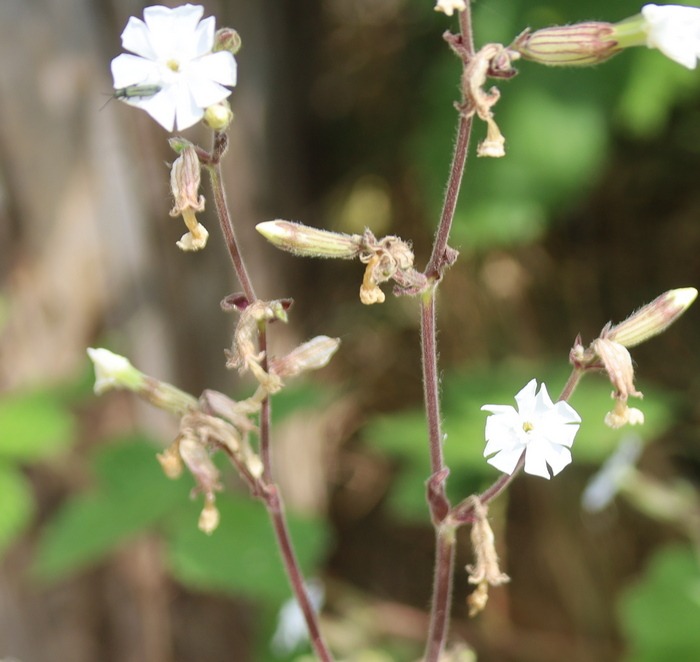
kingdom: Plantae
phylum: Tracheophyta
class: Magnoliopsida
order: Caryophyllales
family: Caryophyllaceae
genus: Silene
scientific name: Silene latifolia
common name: Aftenpragtstjerne
